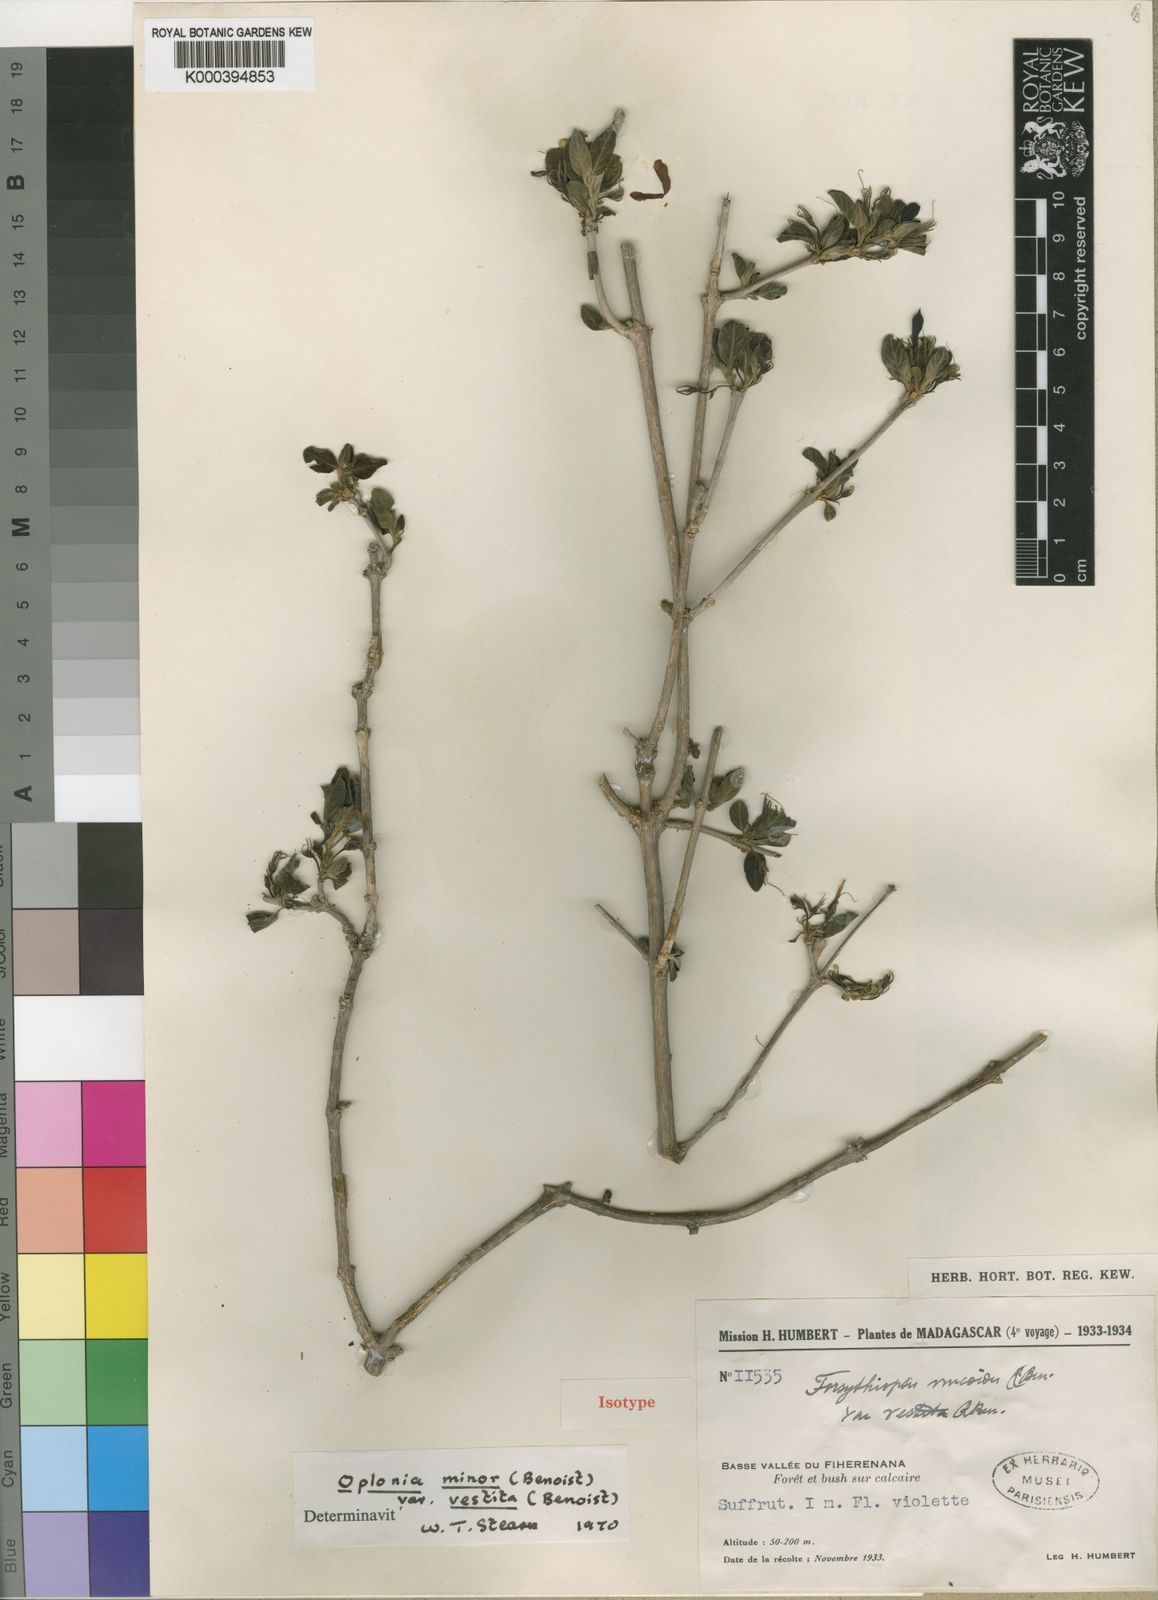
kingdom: Plantae
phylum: Tracheophyta
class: Magnoliopsida
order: Lamiales
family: Acanthaceae
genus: Oplonia
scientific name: Oplonia minor
